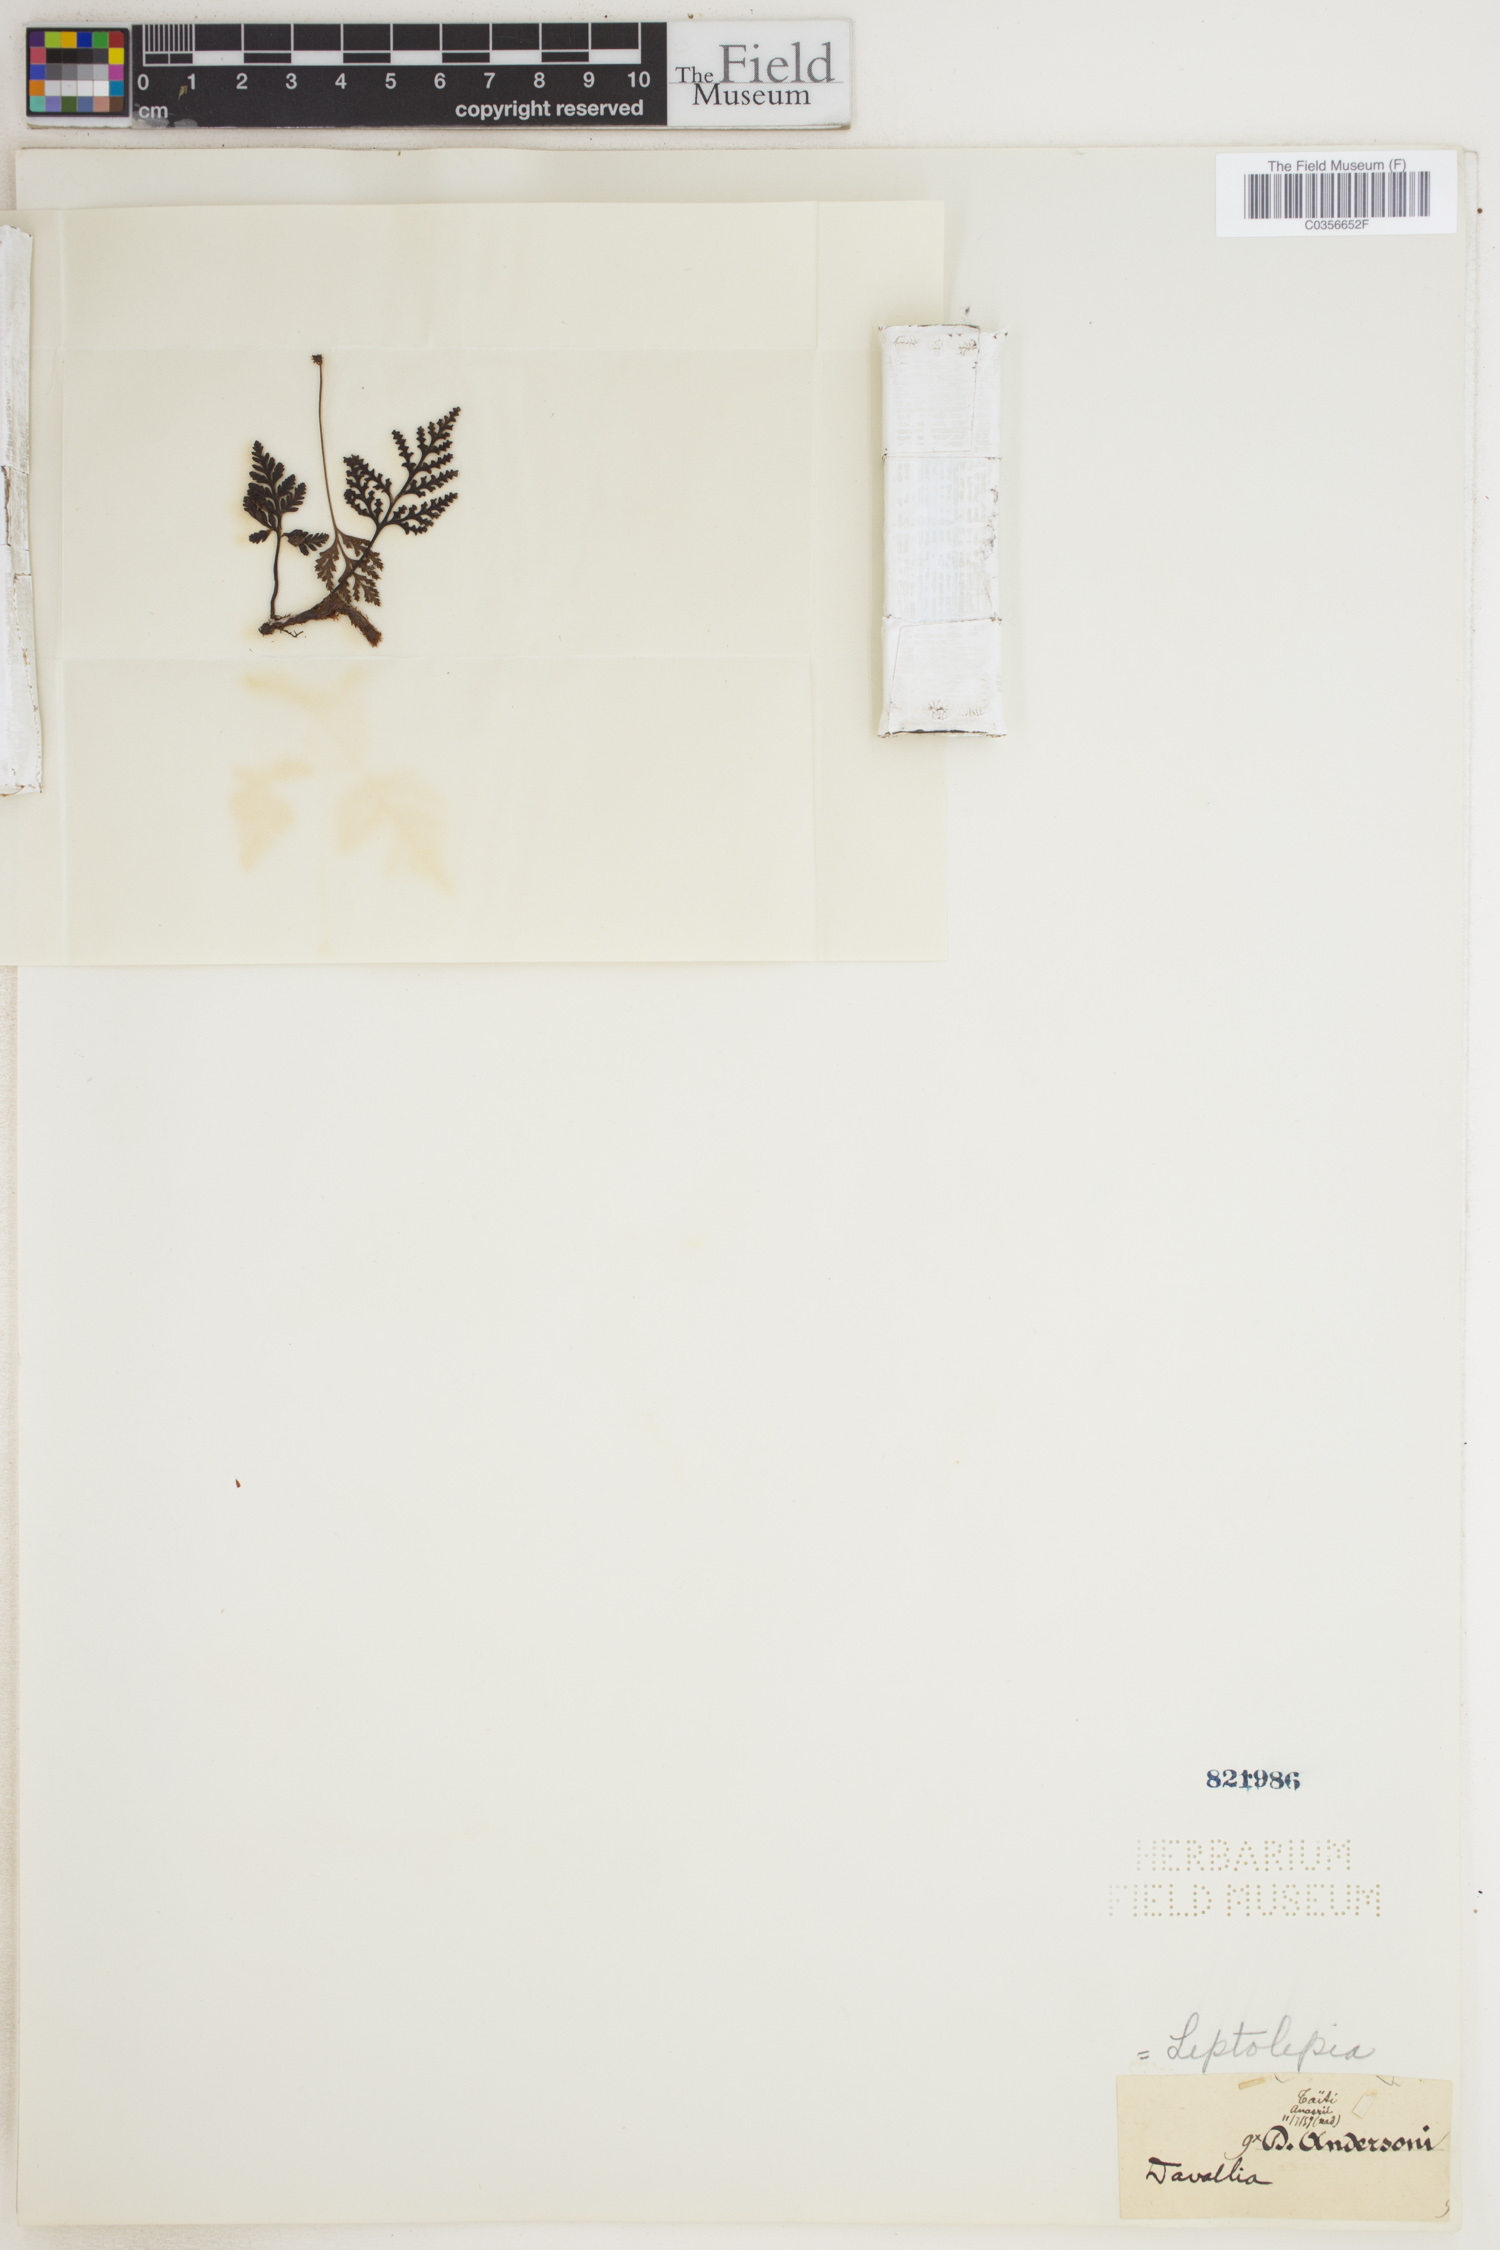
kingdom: Plantae
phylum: Tracheophyta
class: Polypodiopsida
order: Polypodiales
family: Dennstaedtiaceae
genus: Leptolepia
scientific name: Leptolepia
